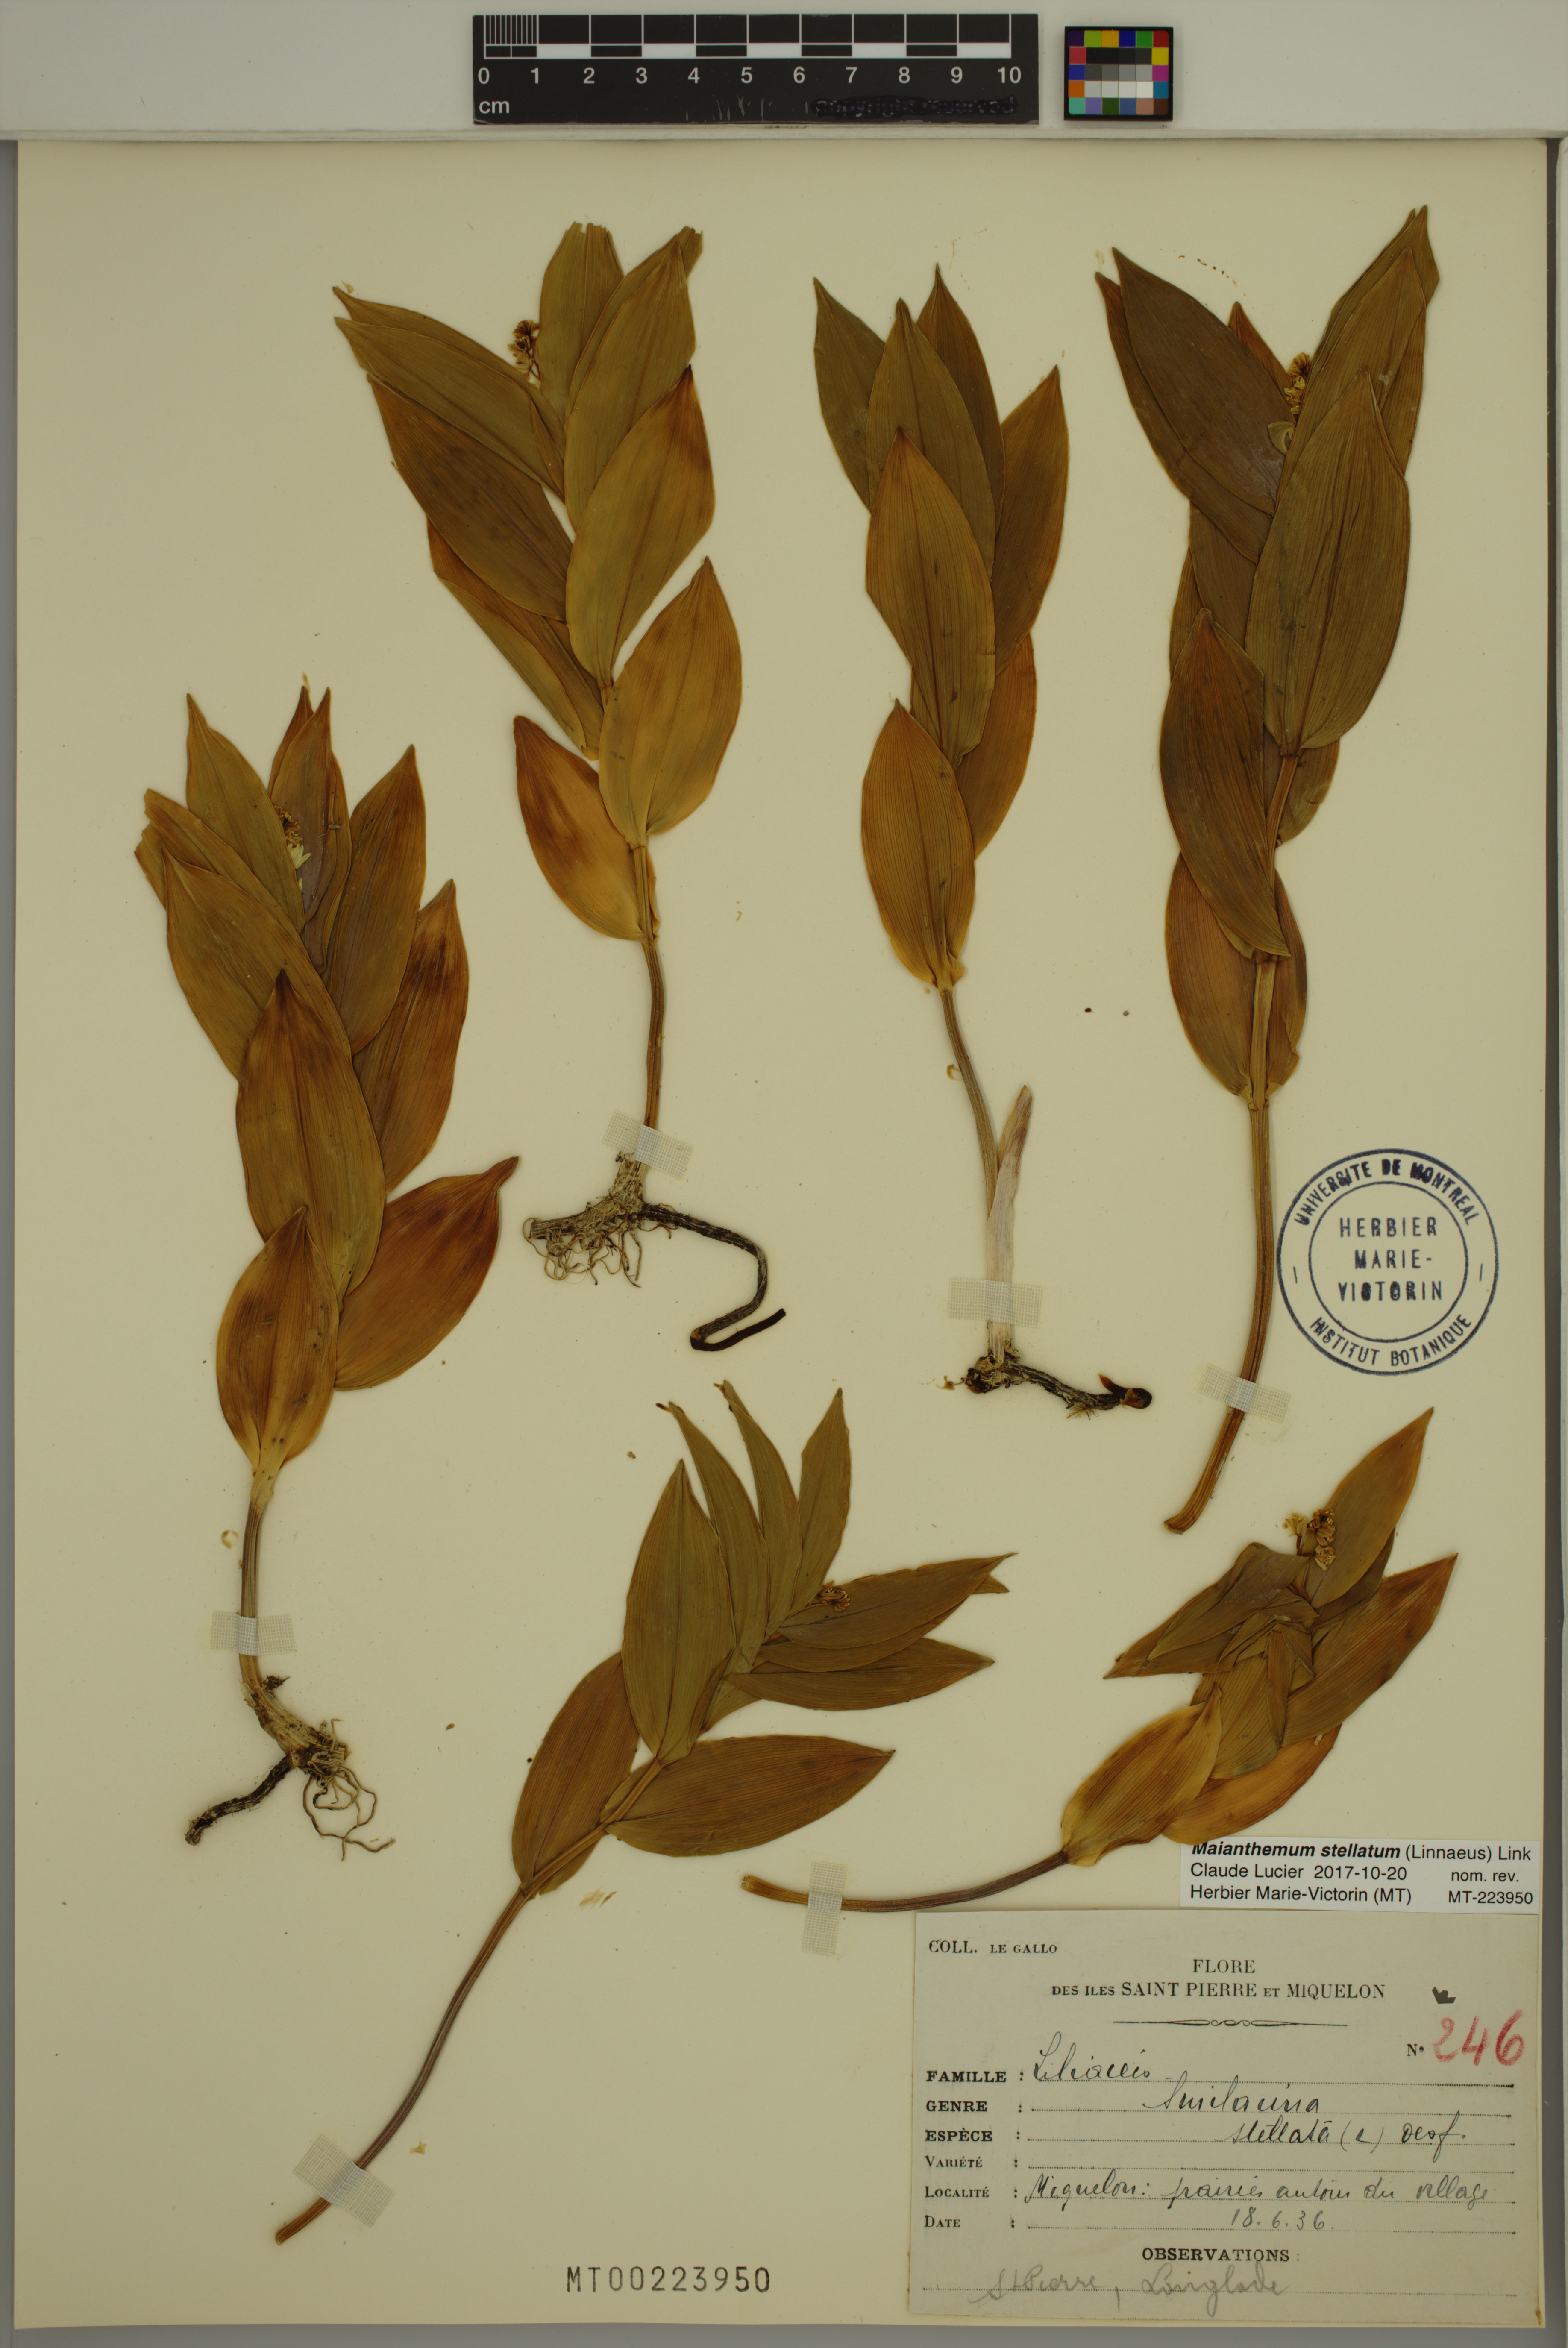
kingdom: Plantae
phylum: Tracheophyta
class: Liliopsida
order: Asparagales
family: Asparagaceae
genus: Maianthemum
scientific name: Maianthemum stellatum
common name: Little false solomon's seal
